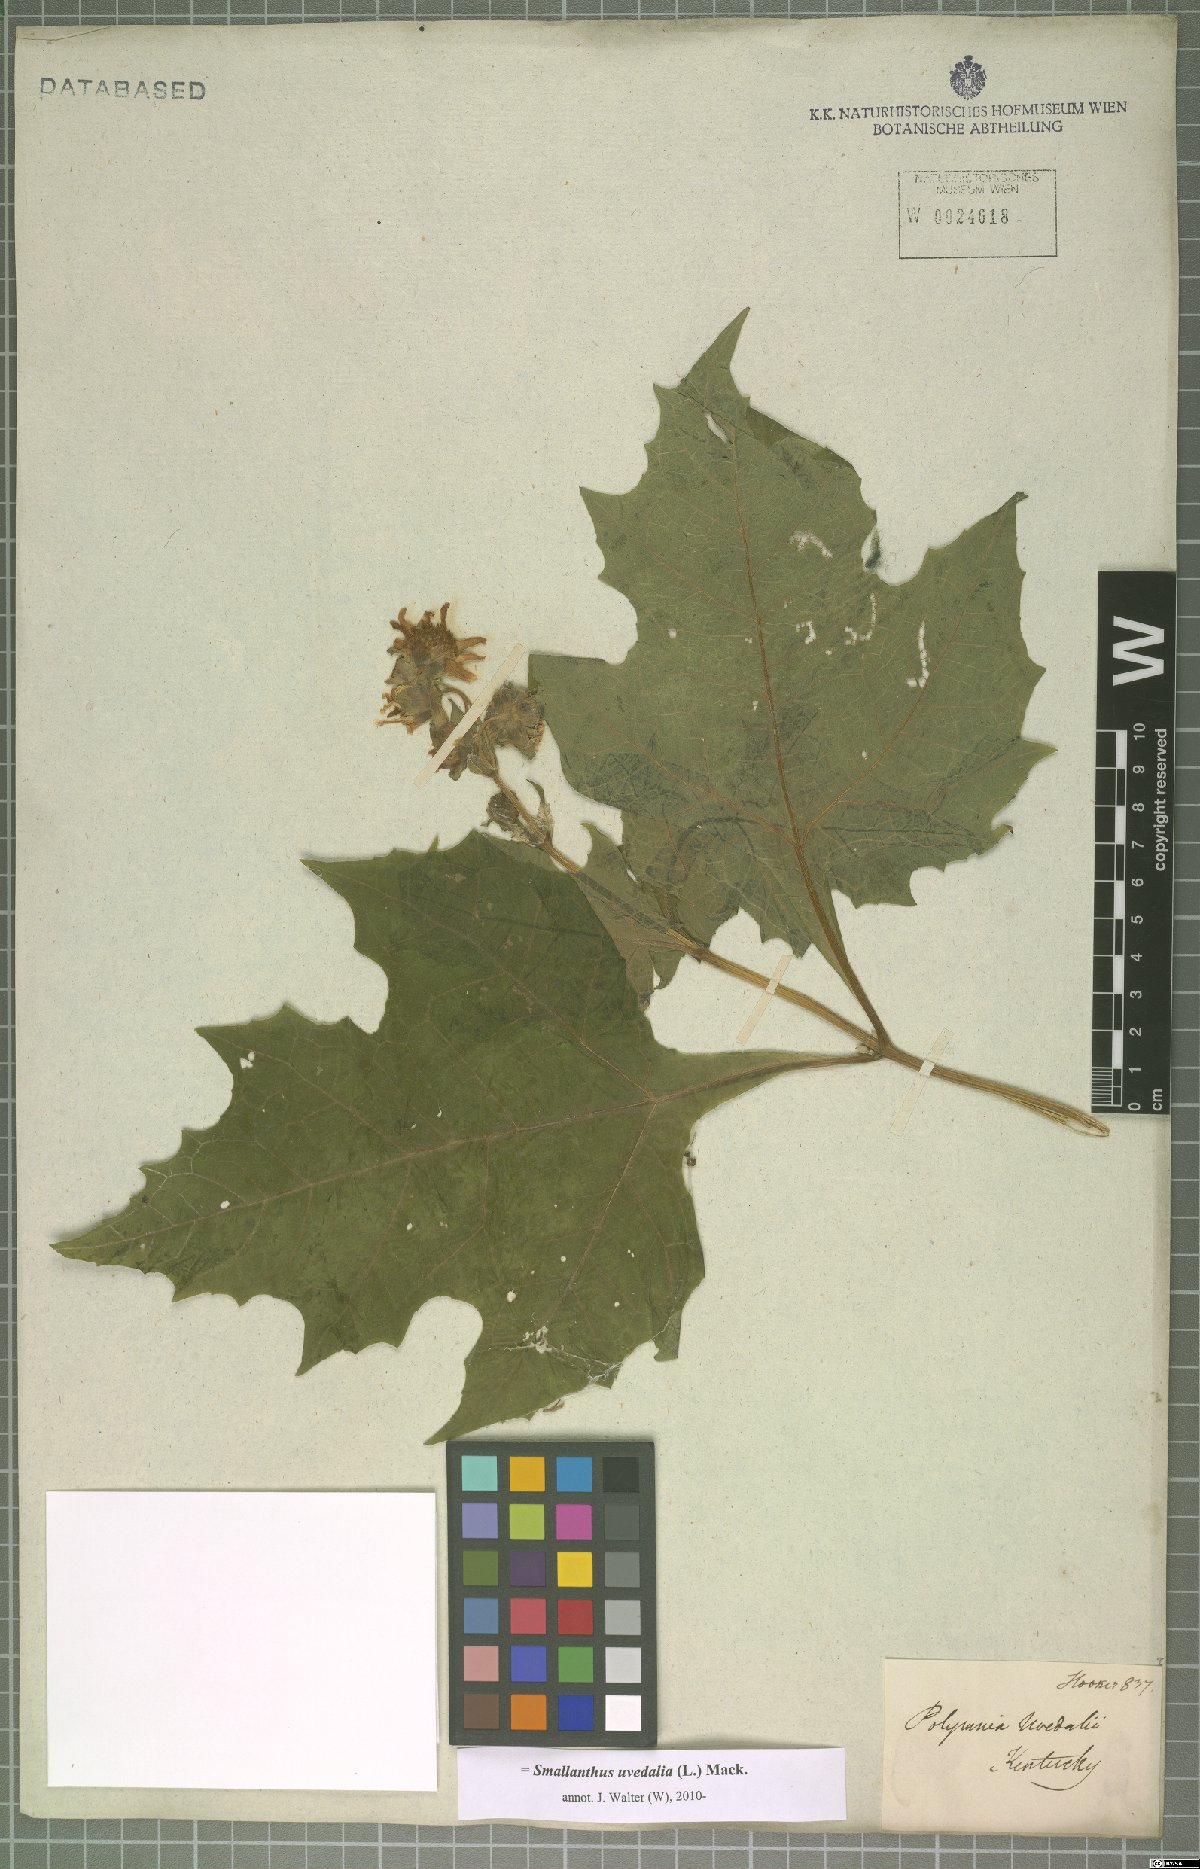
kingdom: Plantae
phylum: Tracheophyta
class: Magnoliopsida
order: Asterales
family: Asteraceae
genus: Smallanthus
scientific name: Smallanthus uvedalia
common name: Bear's-foot
